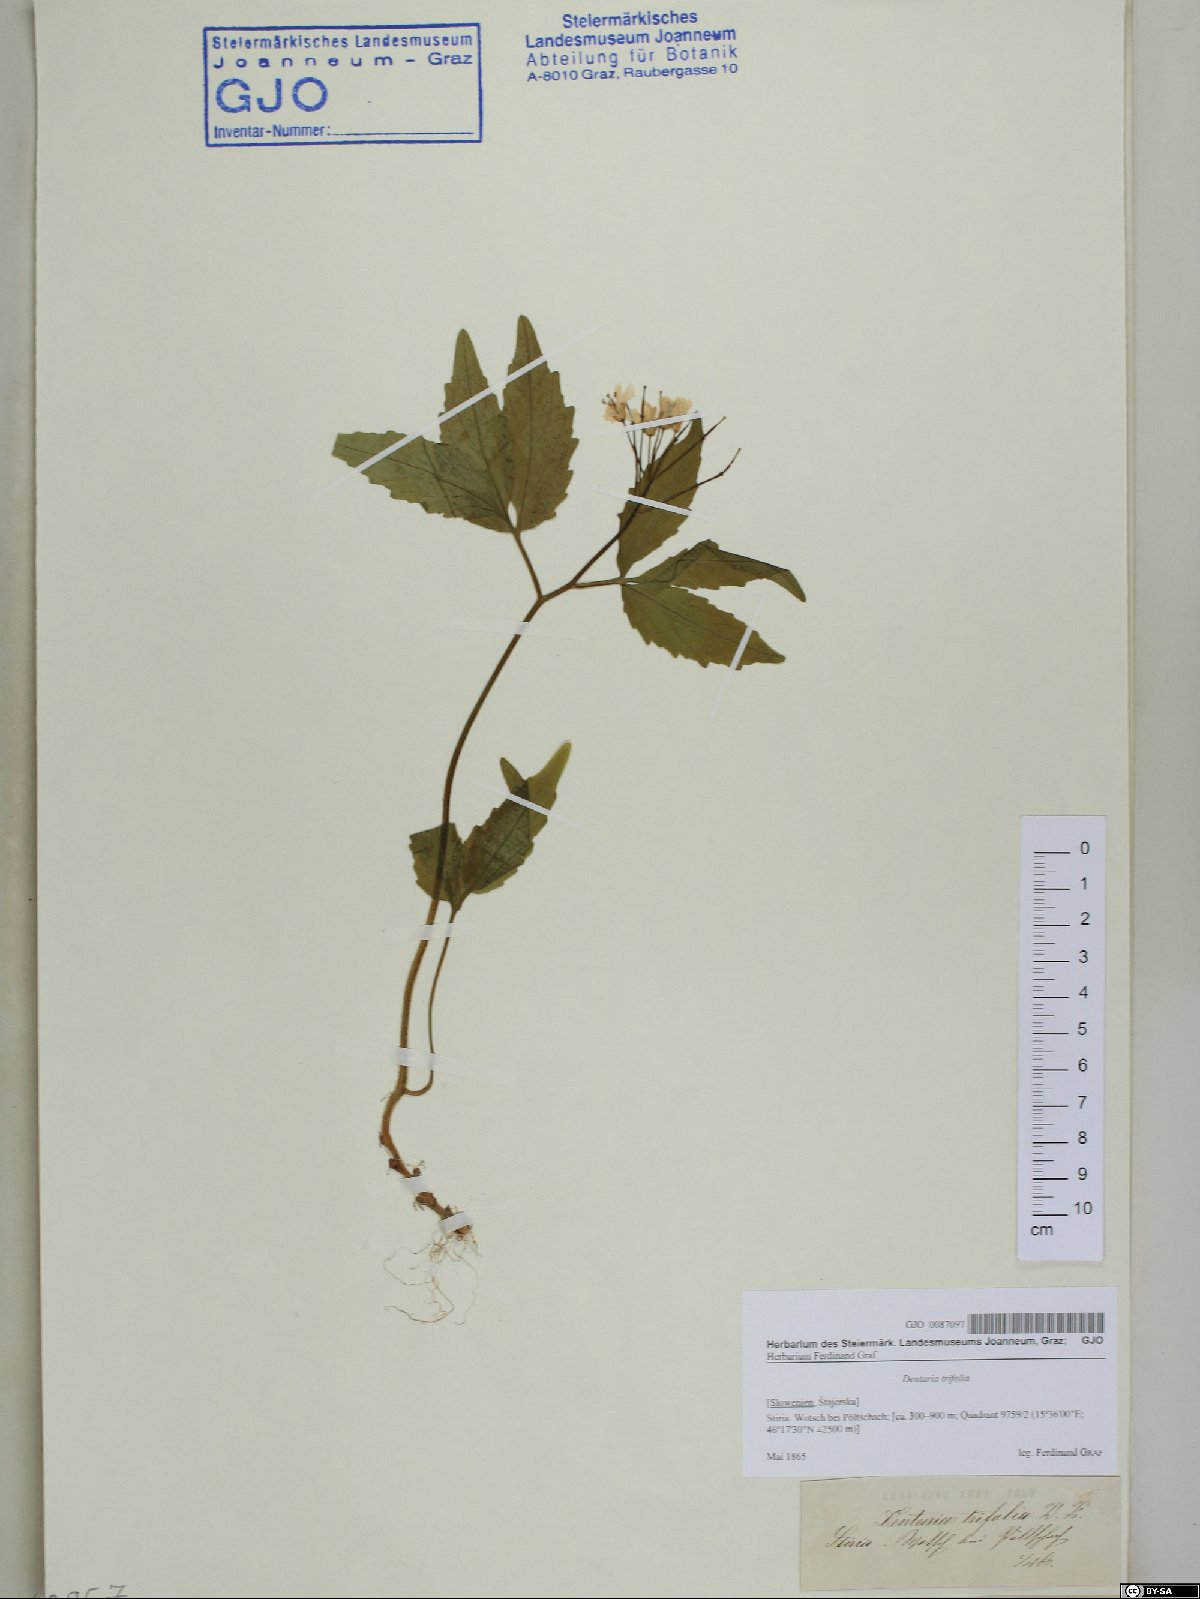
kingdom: Plantae
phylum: Tracheophyta
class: Magnoliopsida
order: Brassicales
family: Brassicaceae
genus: Cardamine
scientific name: Cardamine waldsteinii
